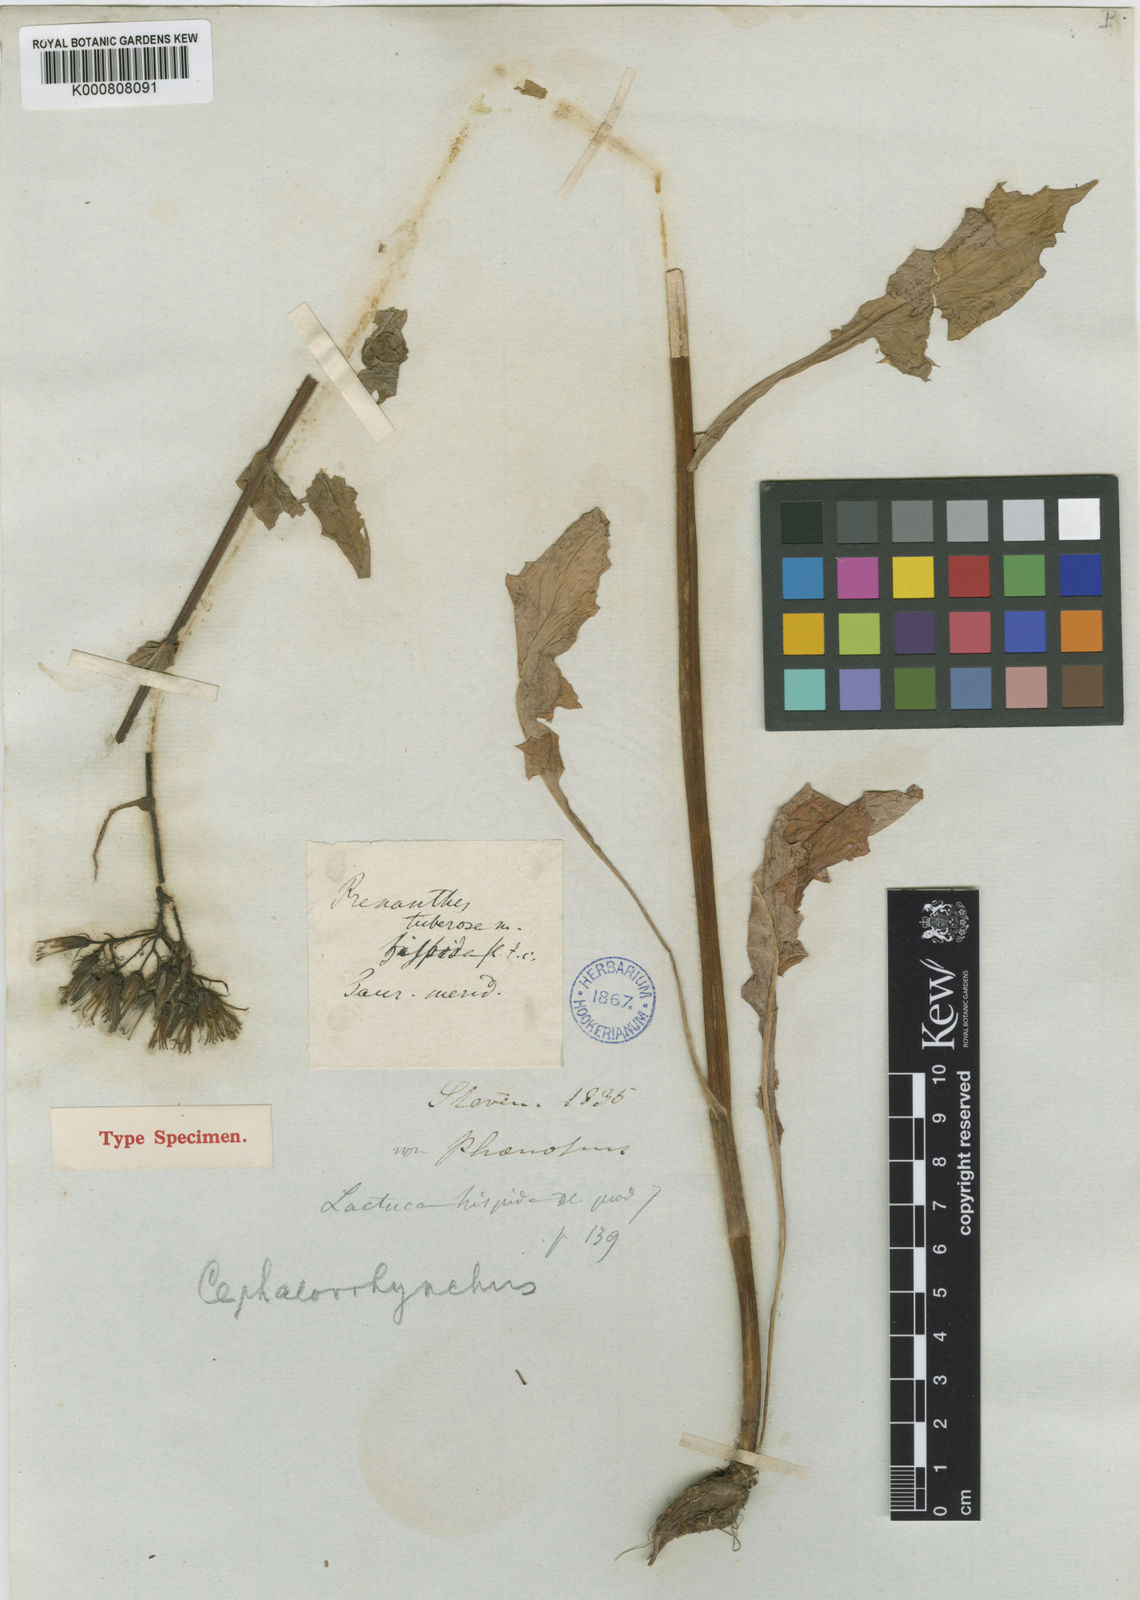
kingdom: Plantae
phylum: Tracheophyta
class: Magnoliopsida
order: Asterales
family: Asteraceae
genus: Lactuca
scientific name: Lactuca hispida
